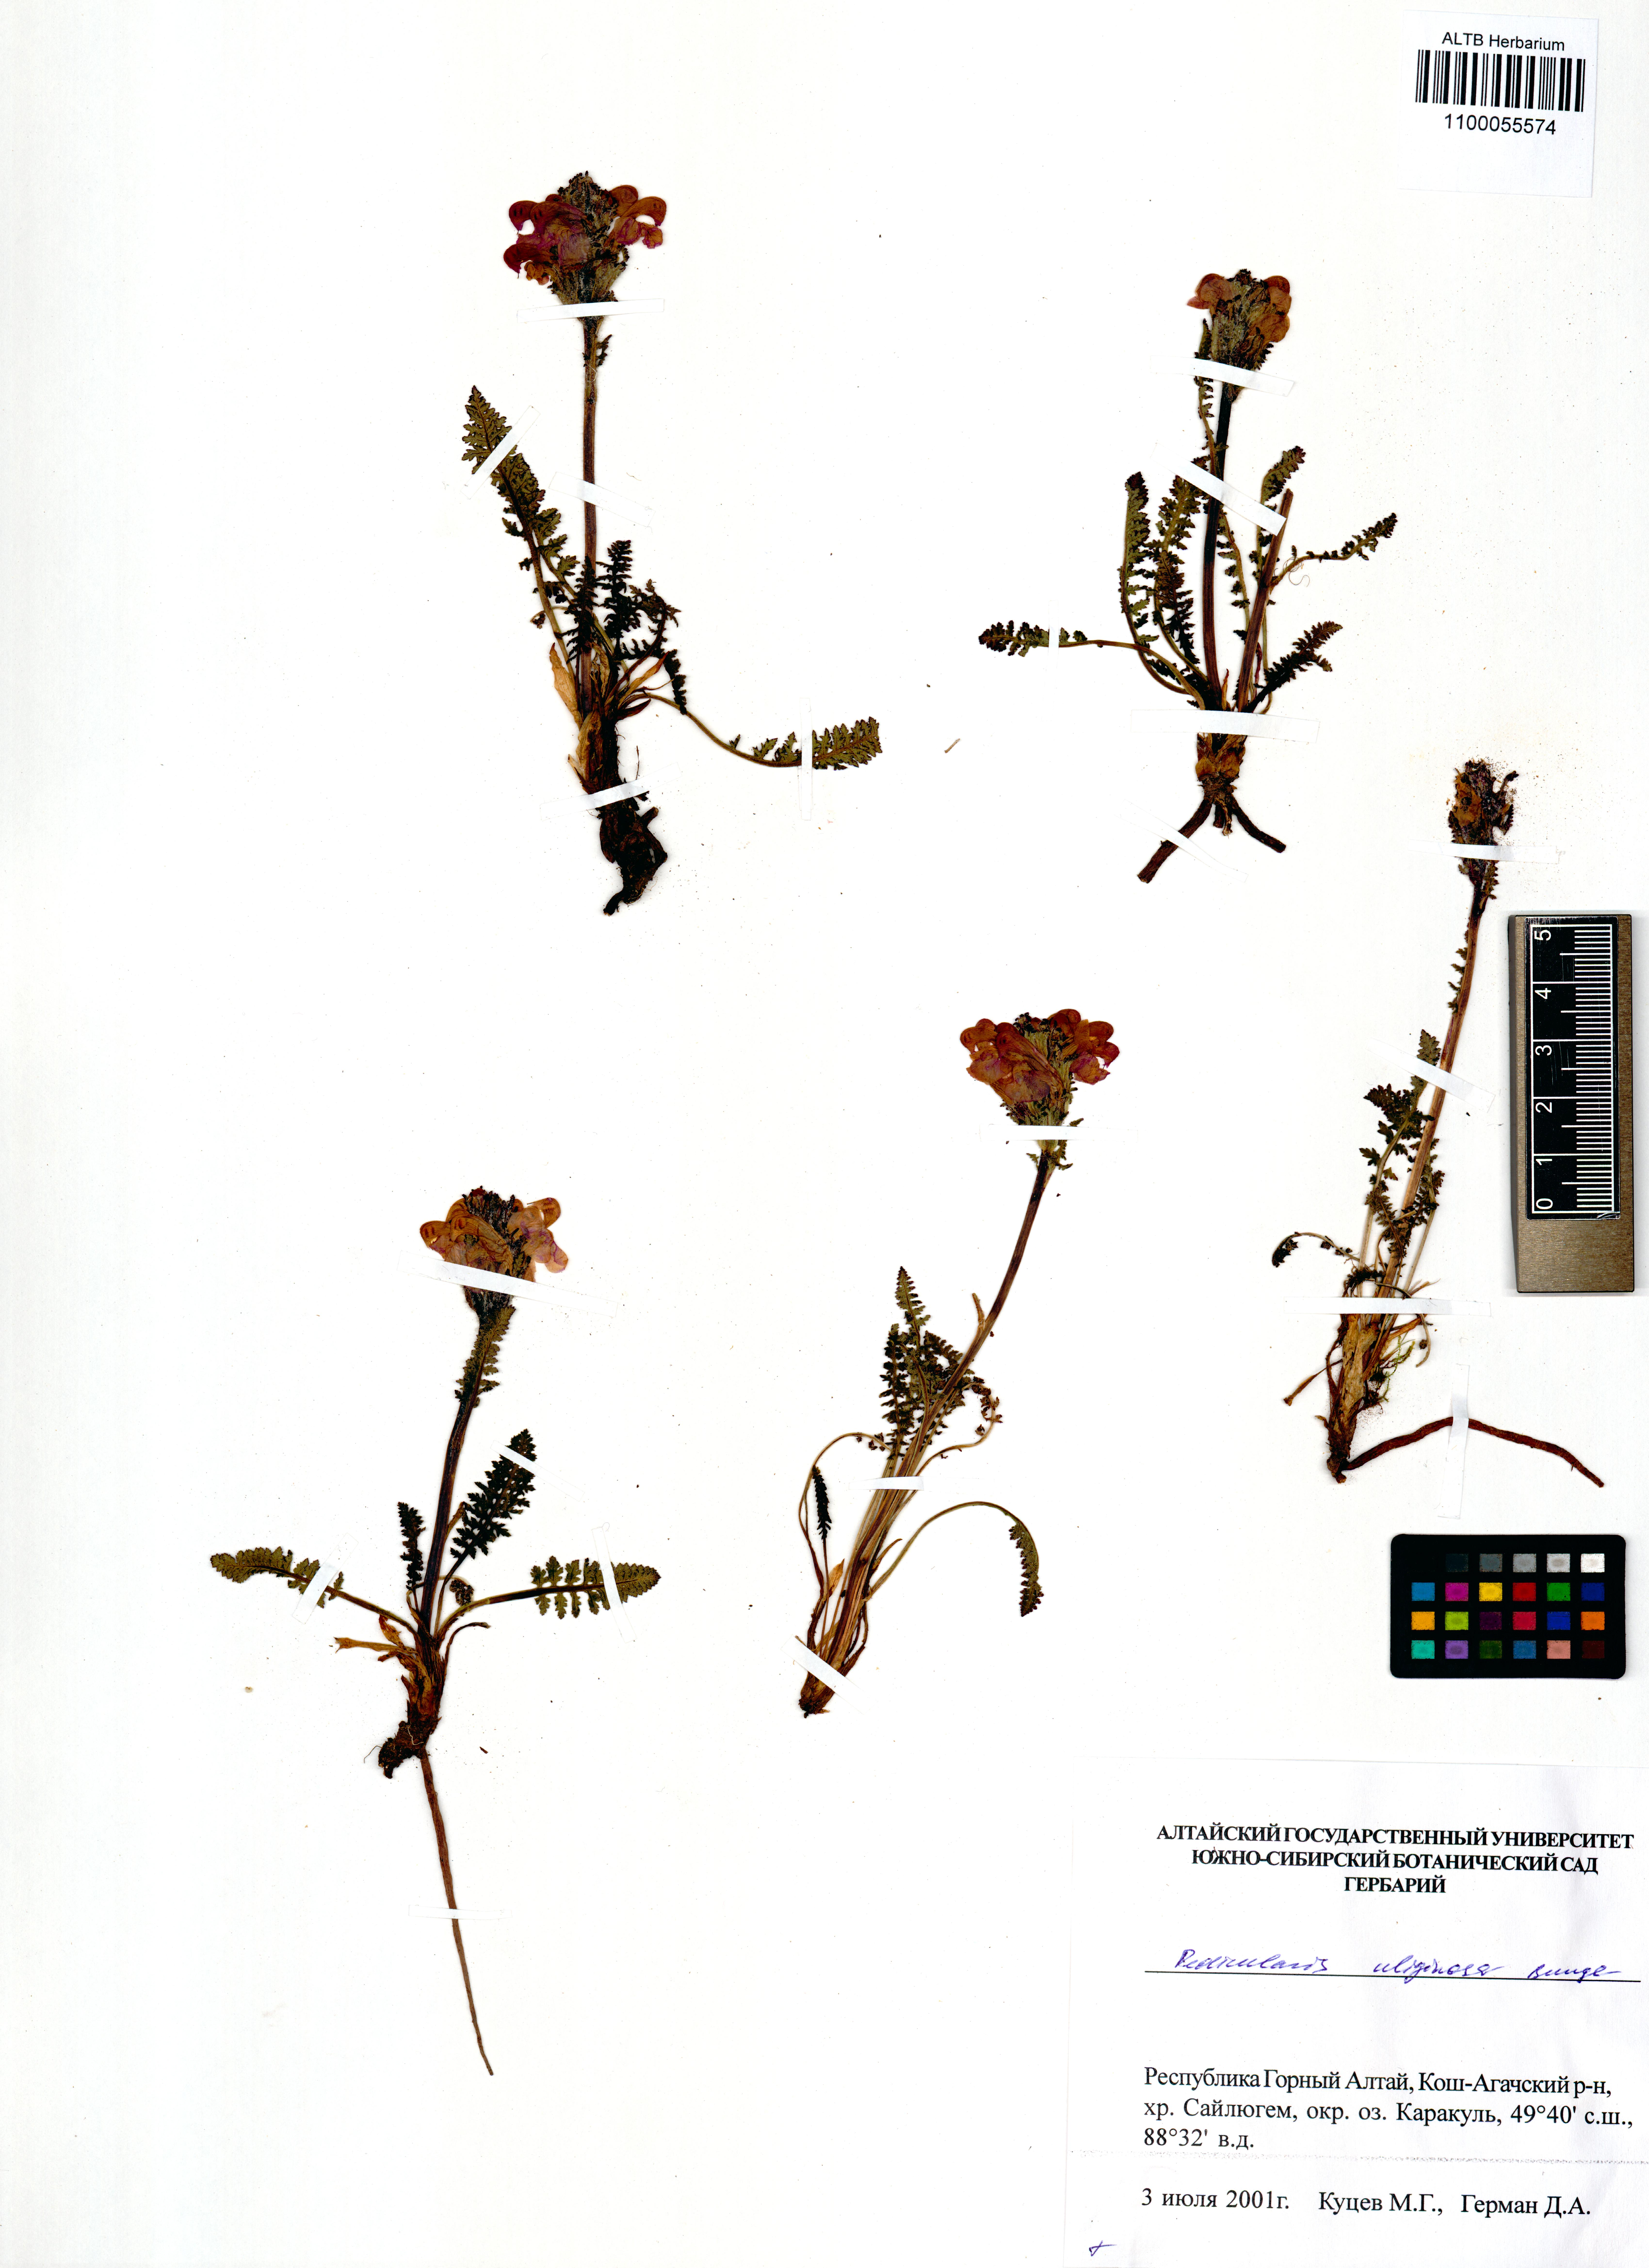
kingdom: Plantae
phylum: Tracheophyta
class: Magnoliopsida
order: Lamiales
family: Orobanchaceae
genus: Pedicularis
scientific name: Pedicularis uliginosa
